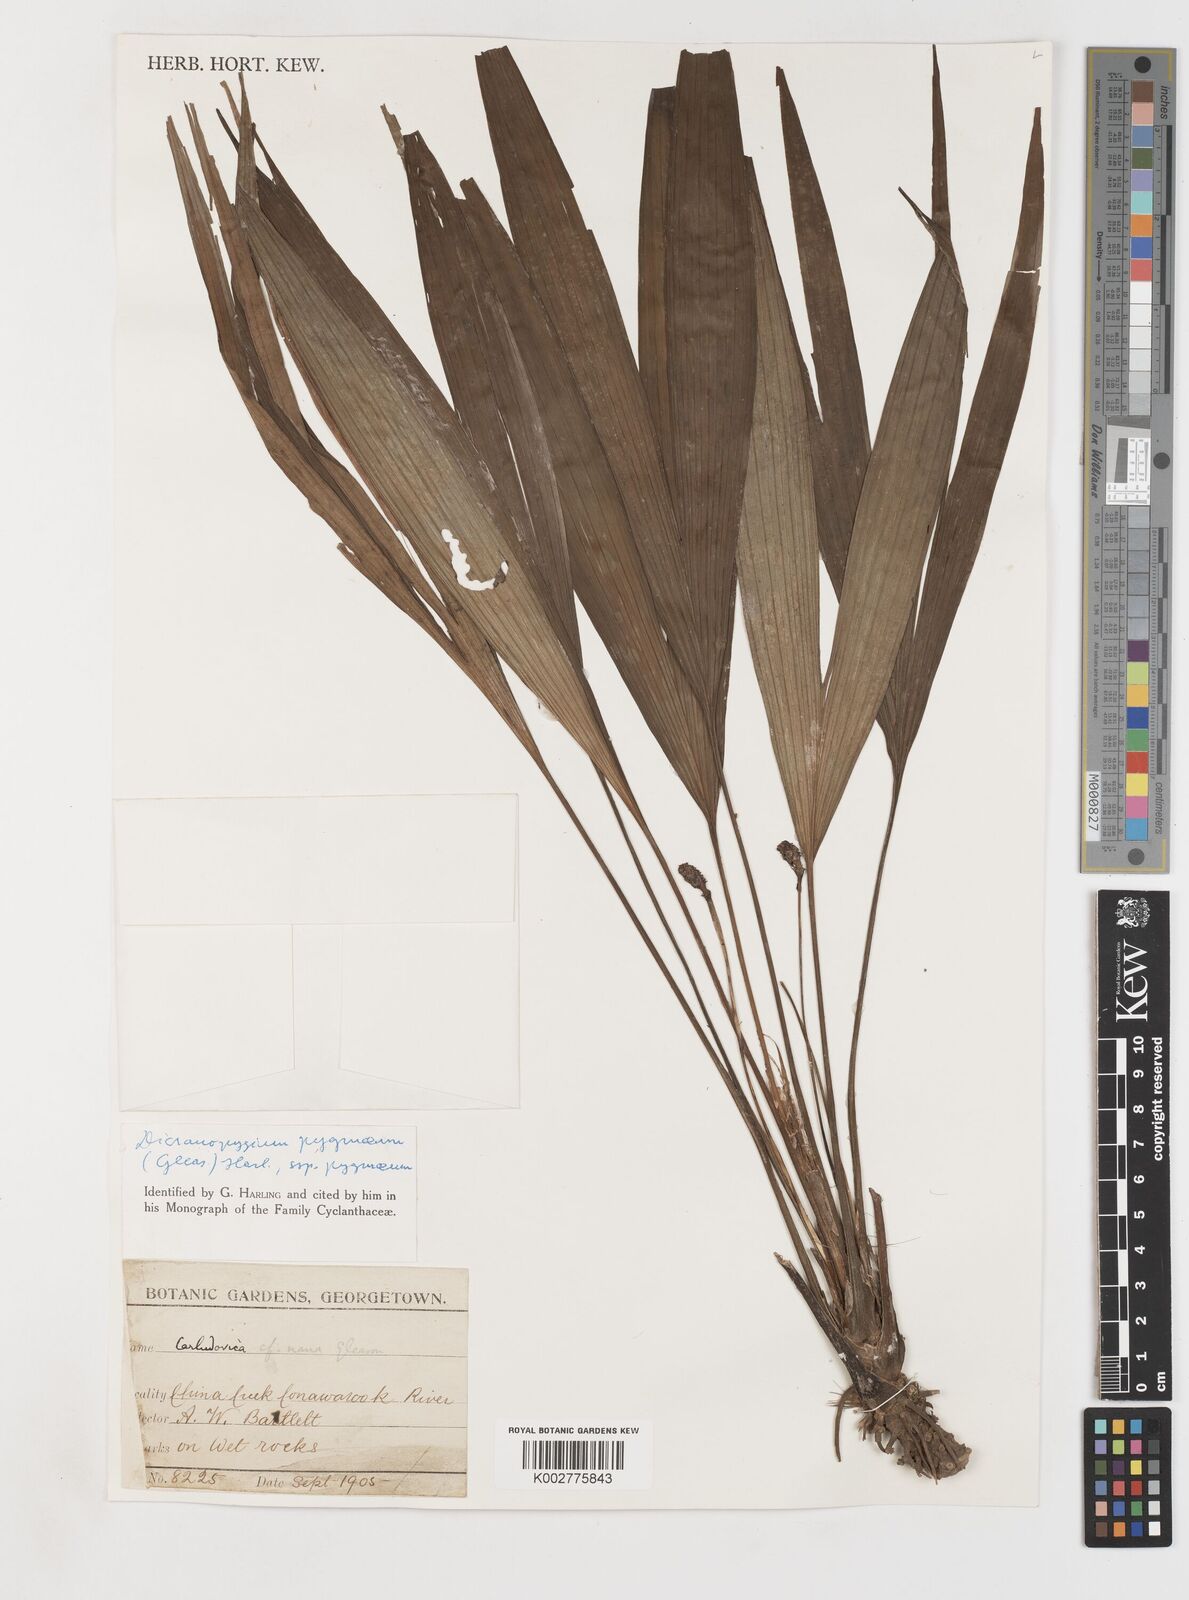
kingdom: Plantae
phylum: Tracheophyta
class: Liliopsida
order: Pandanales
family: Cyclanthaceae
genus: Dicranopygium
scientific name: Dicranopygium pygmaeum
